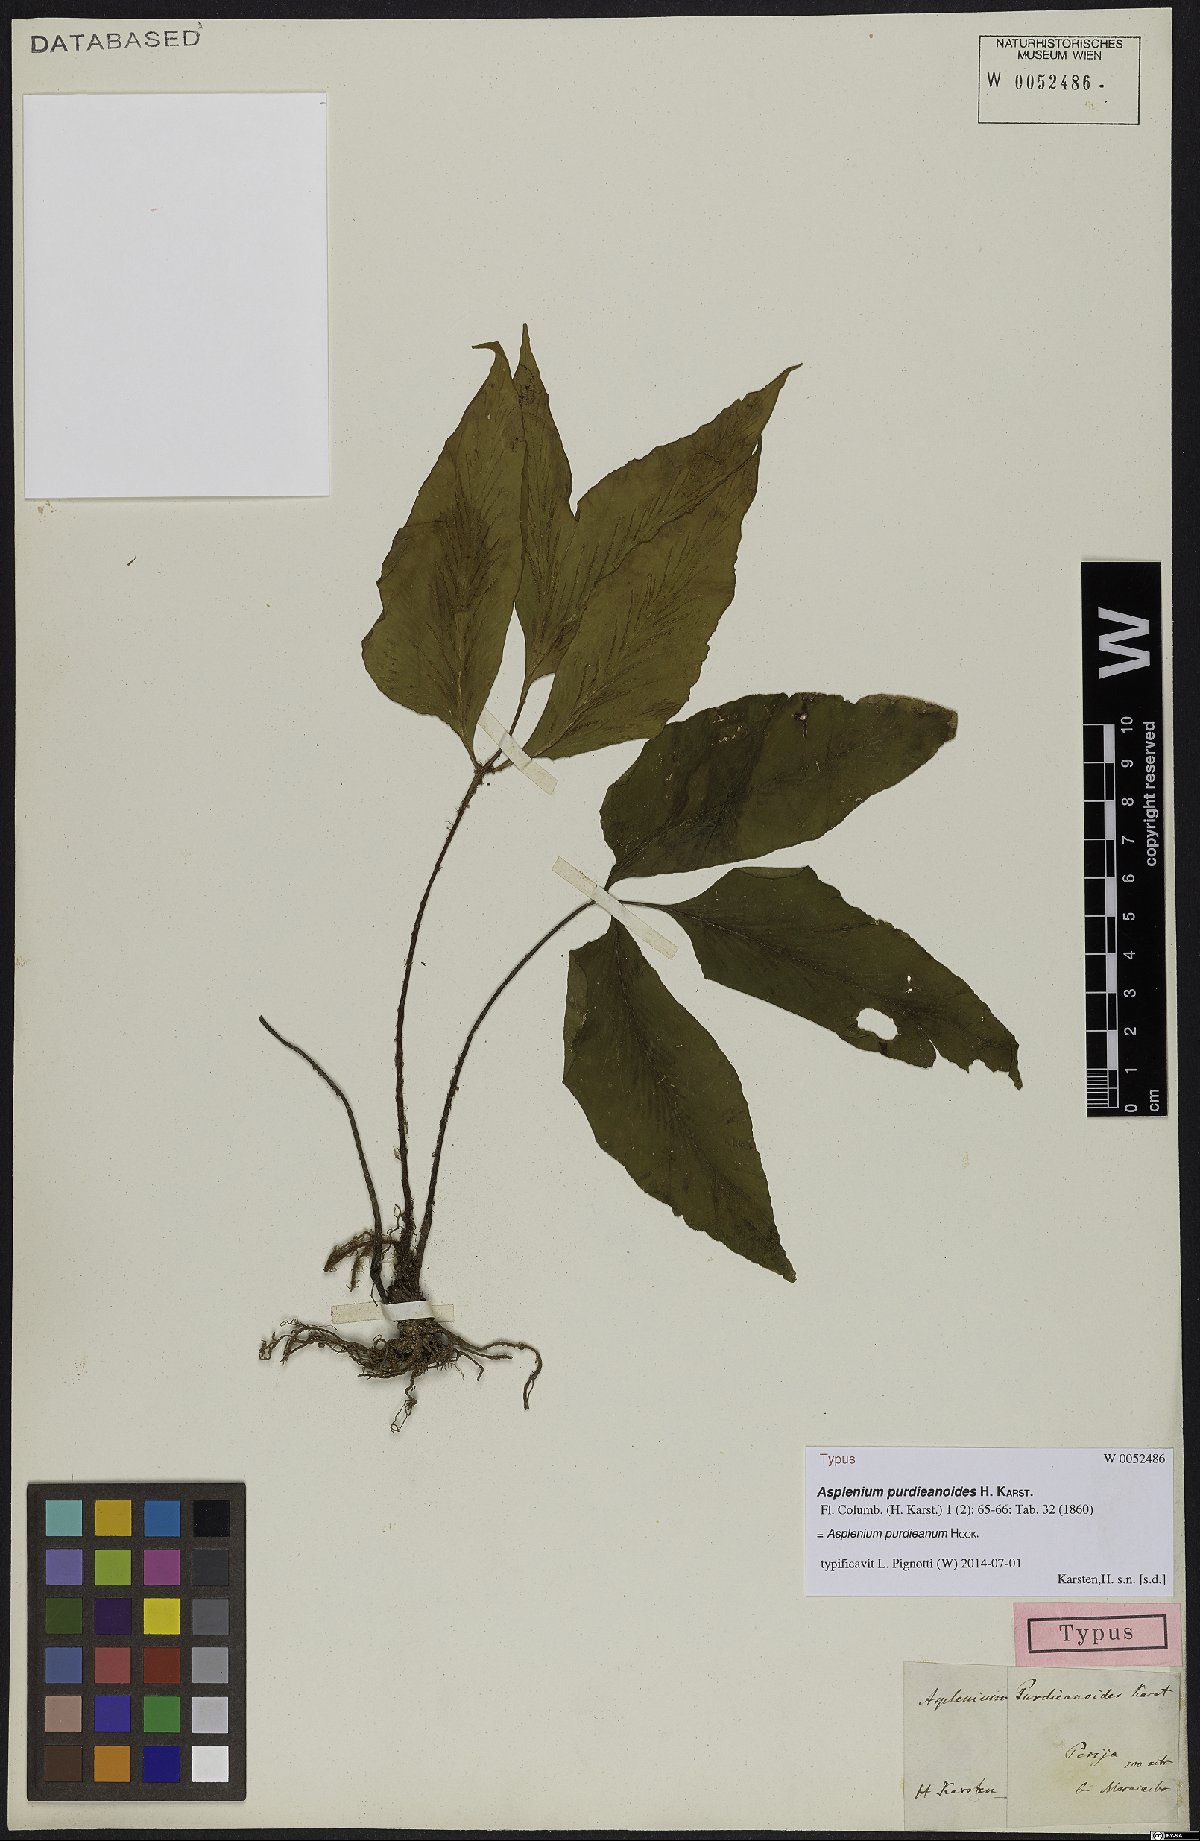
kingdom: Plantae
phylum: Tracheophyta
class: Polypodiopsida
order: Polypodiales
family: Aspleniaceae
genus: Asplenium
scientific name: Asplenium purdieanum
